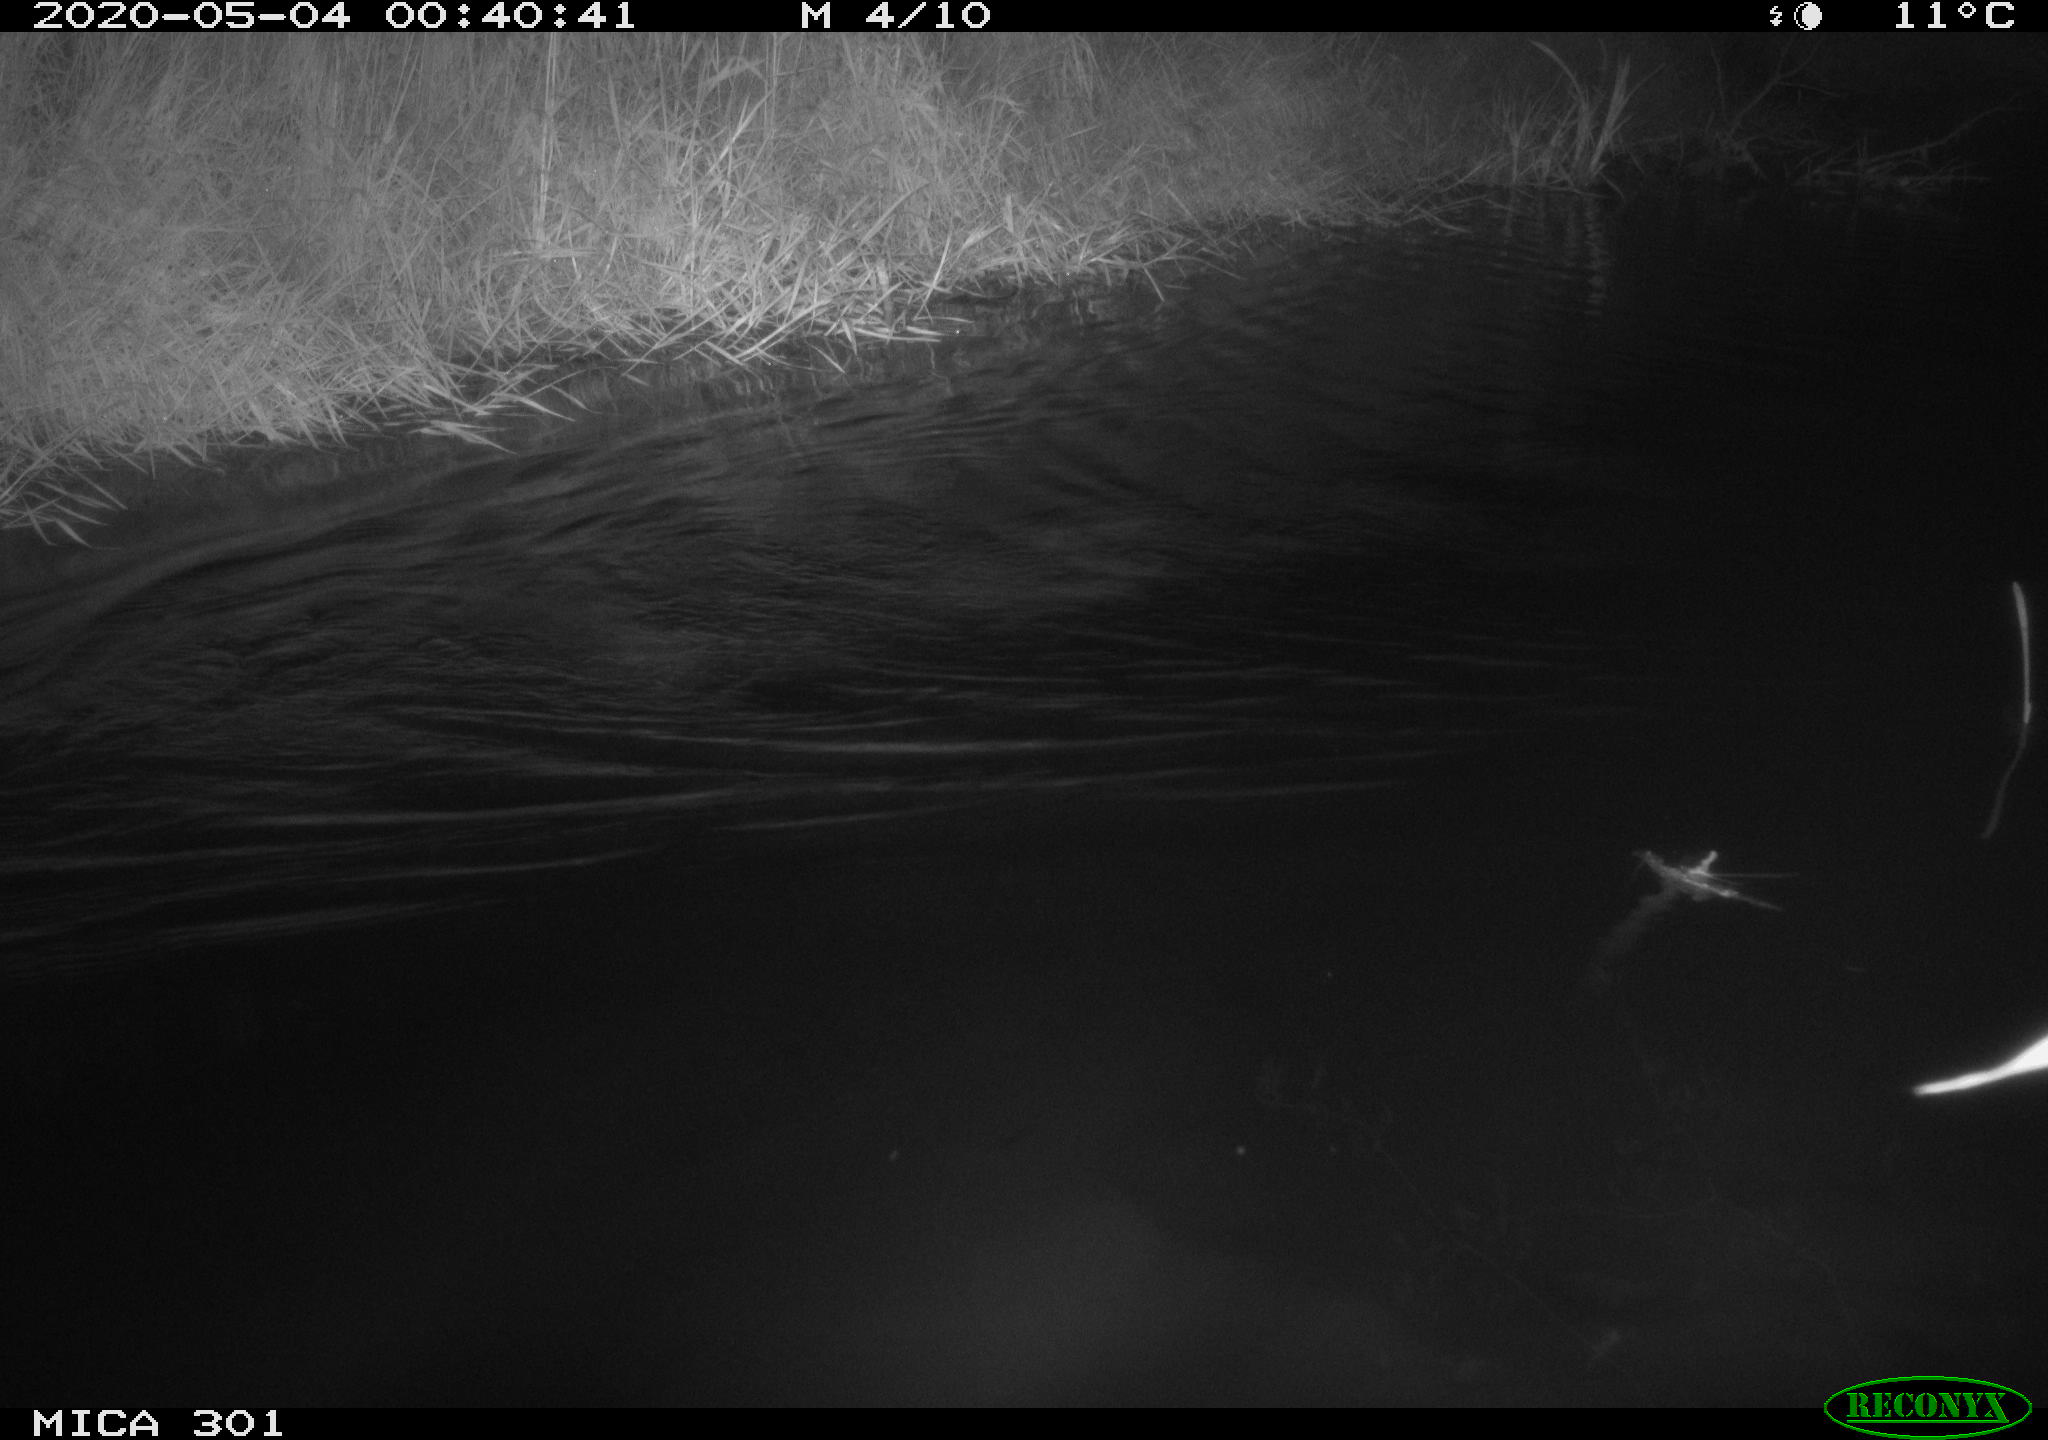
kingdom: Animalia
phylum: Chordata
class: Mammalia
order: Rodentia
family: Castoridae
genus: Castor
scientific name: Castor fiber
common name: Eurasian beaver
